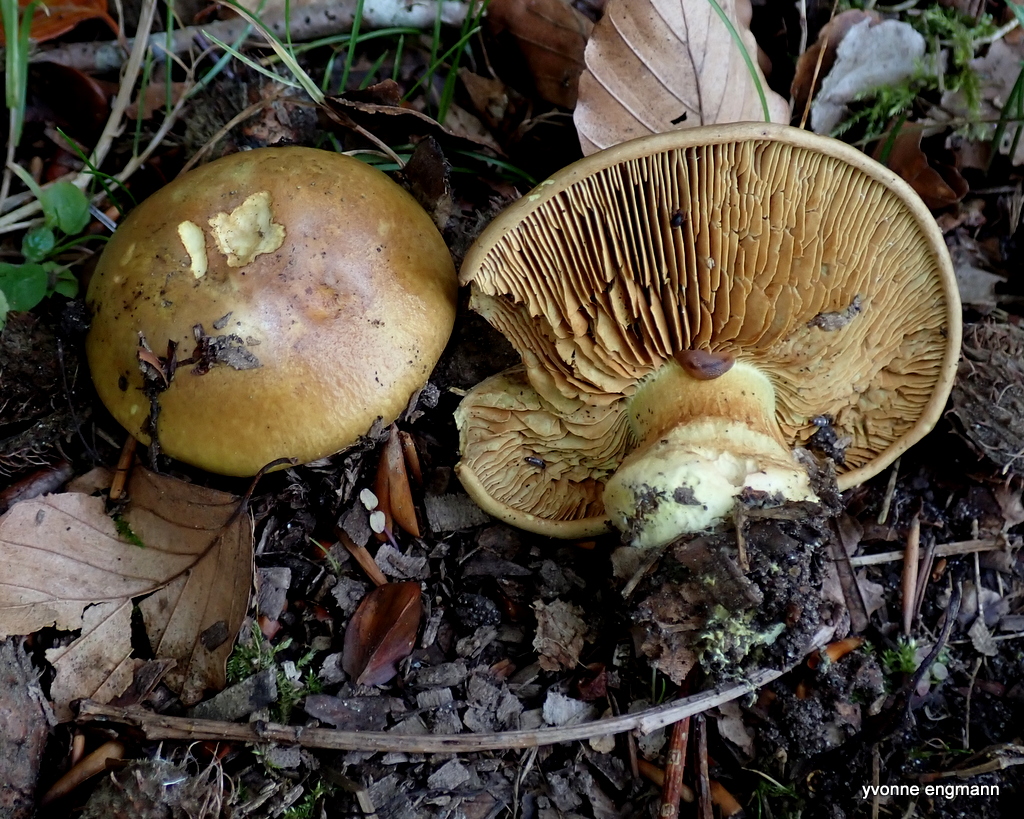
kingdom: Fungi
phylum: Basidiomycota
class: Agaricomycetes
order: Agaricales
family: Cortinariaceae
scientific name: Cortinariaceae
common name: slørhatfamilien
